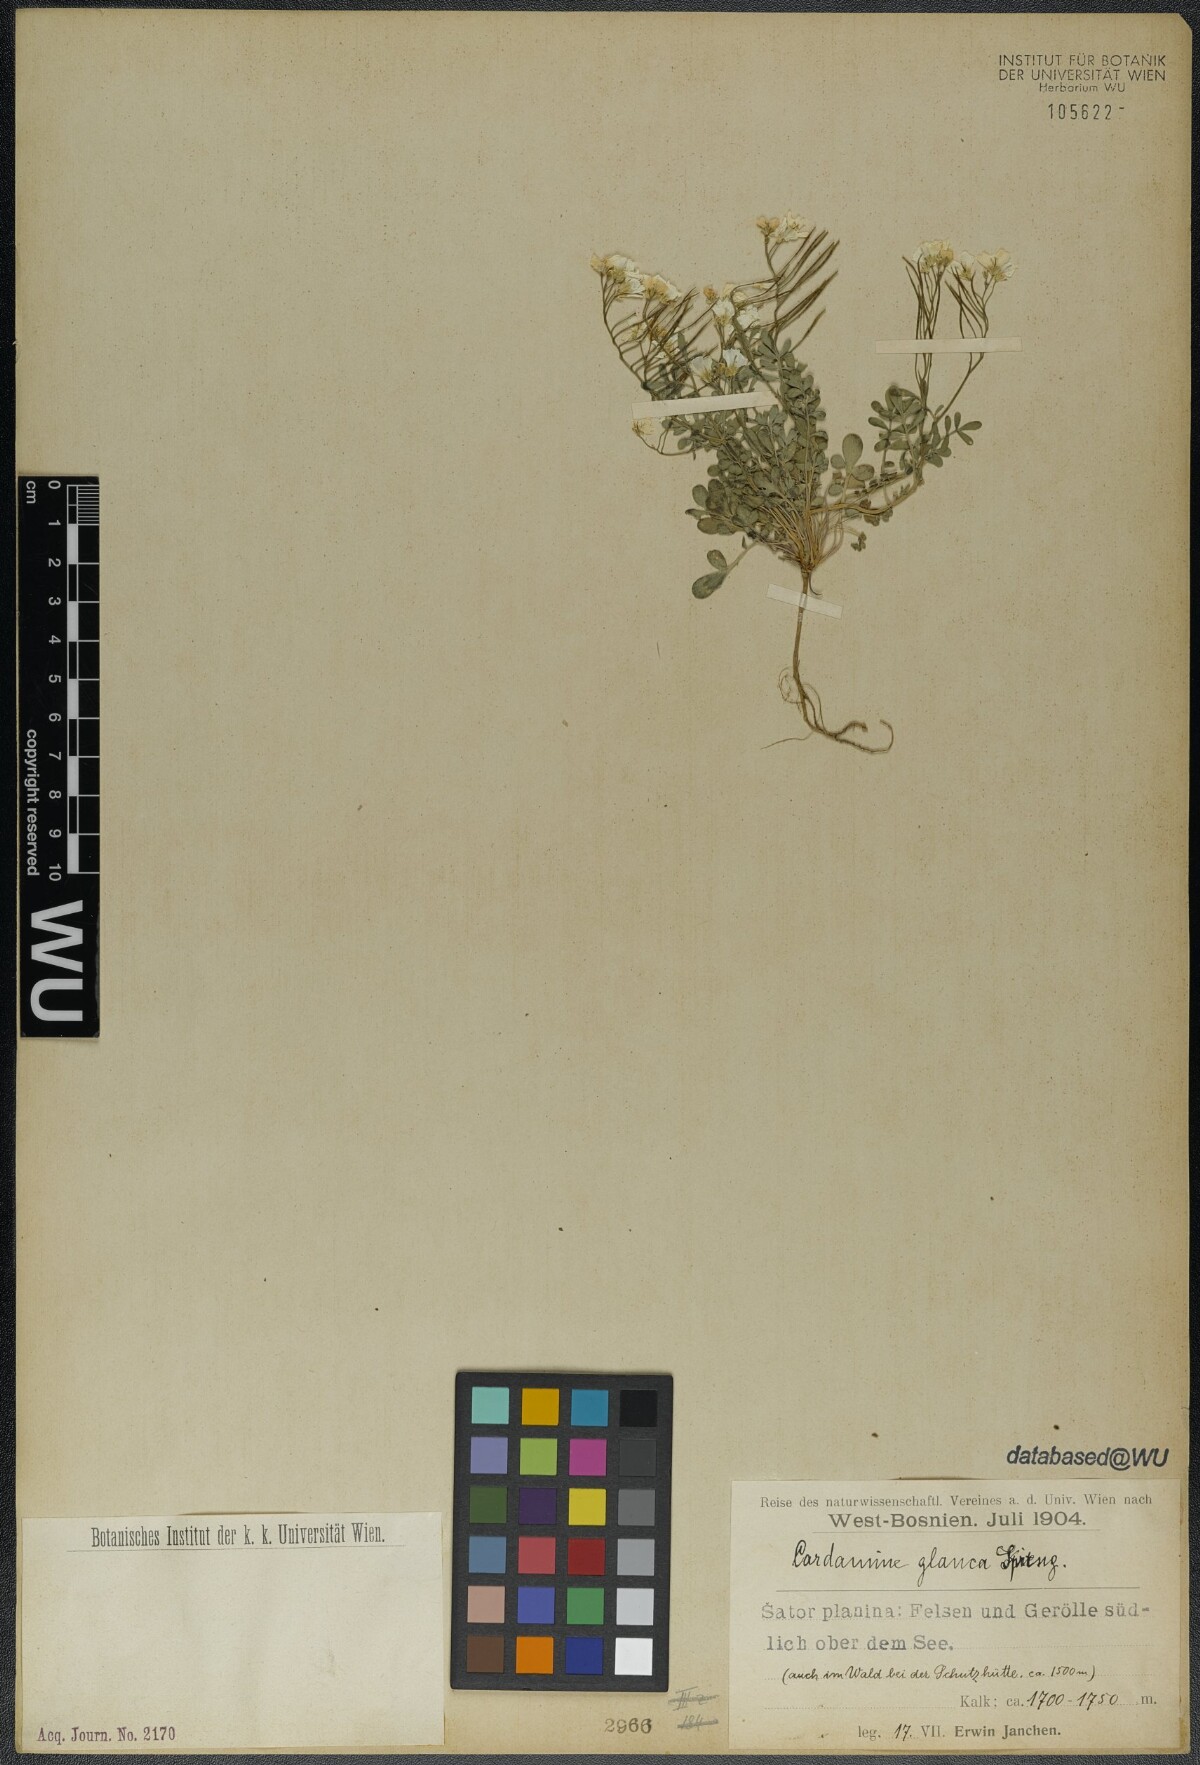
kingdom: Plantae
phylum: Tracheophyta
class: Magnoliopsida
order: Brassicales
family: Brassicaceae
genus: Cardamine
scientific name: Cardamine glauca
